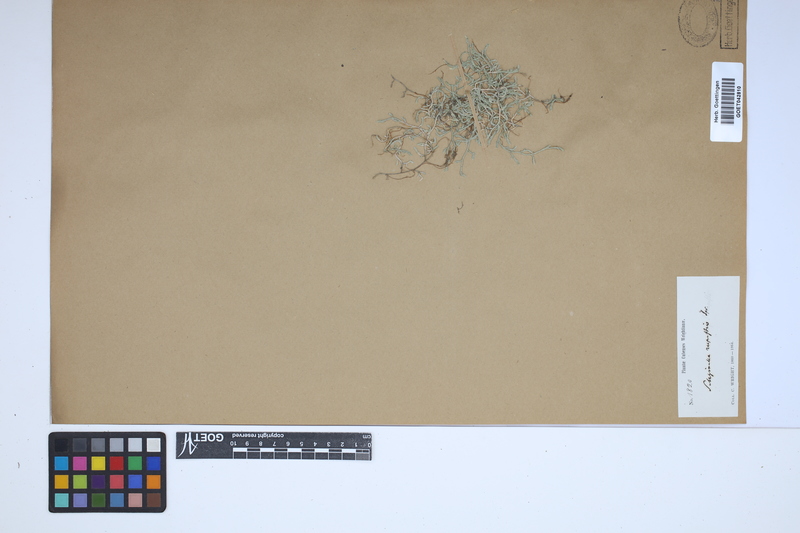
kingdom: Plantae
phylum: Tracheophyta
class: Lycopodiopsida
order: Selaginellales
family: Selaginellaceae
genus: Selaginella
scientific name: Selaginella rupestris
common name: Dwarf spikemoss
